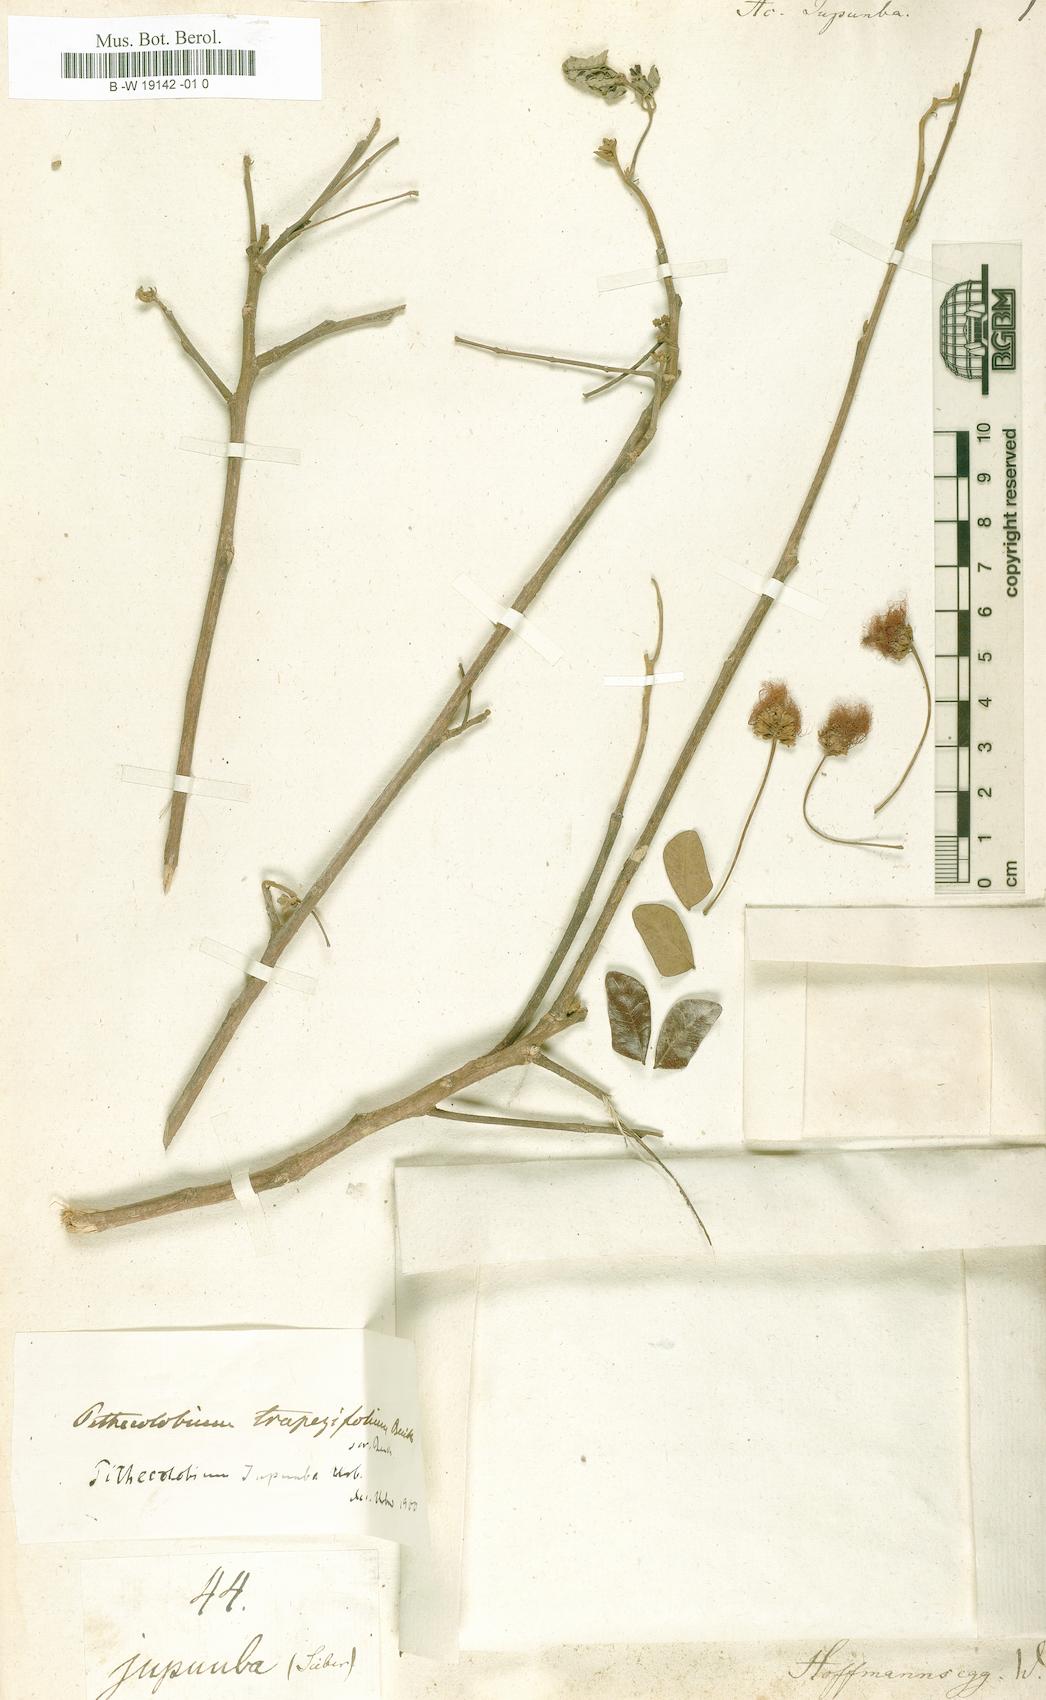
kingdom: Plantae
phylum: Tracheophyta
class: Magnoliopsida
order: Fabales
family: Fabaceae
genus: Jupunba
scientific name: Jupunba trapezifolia
